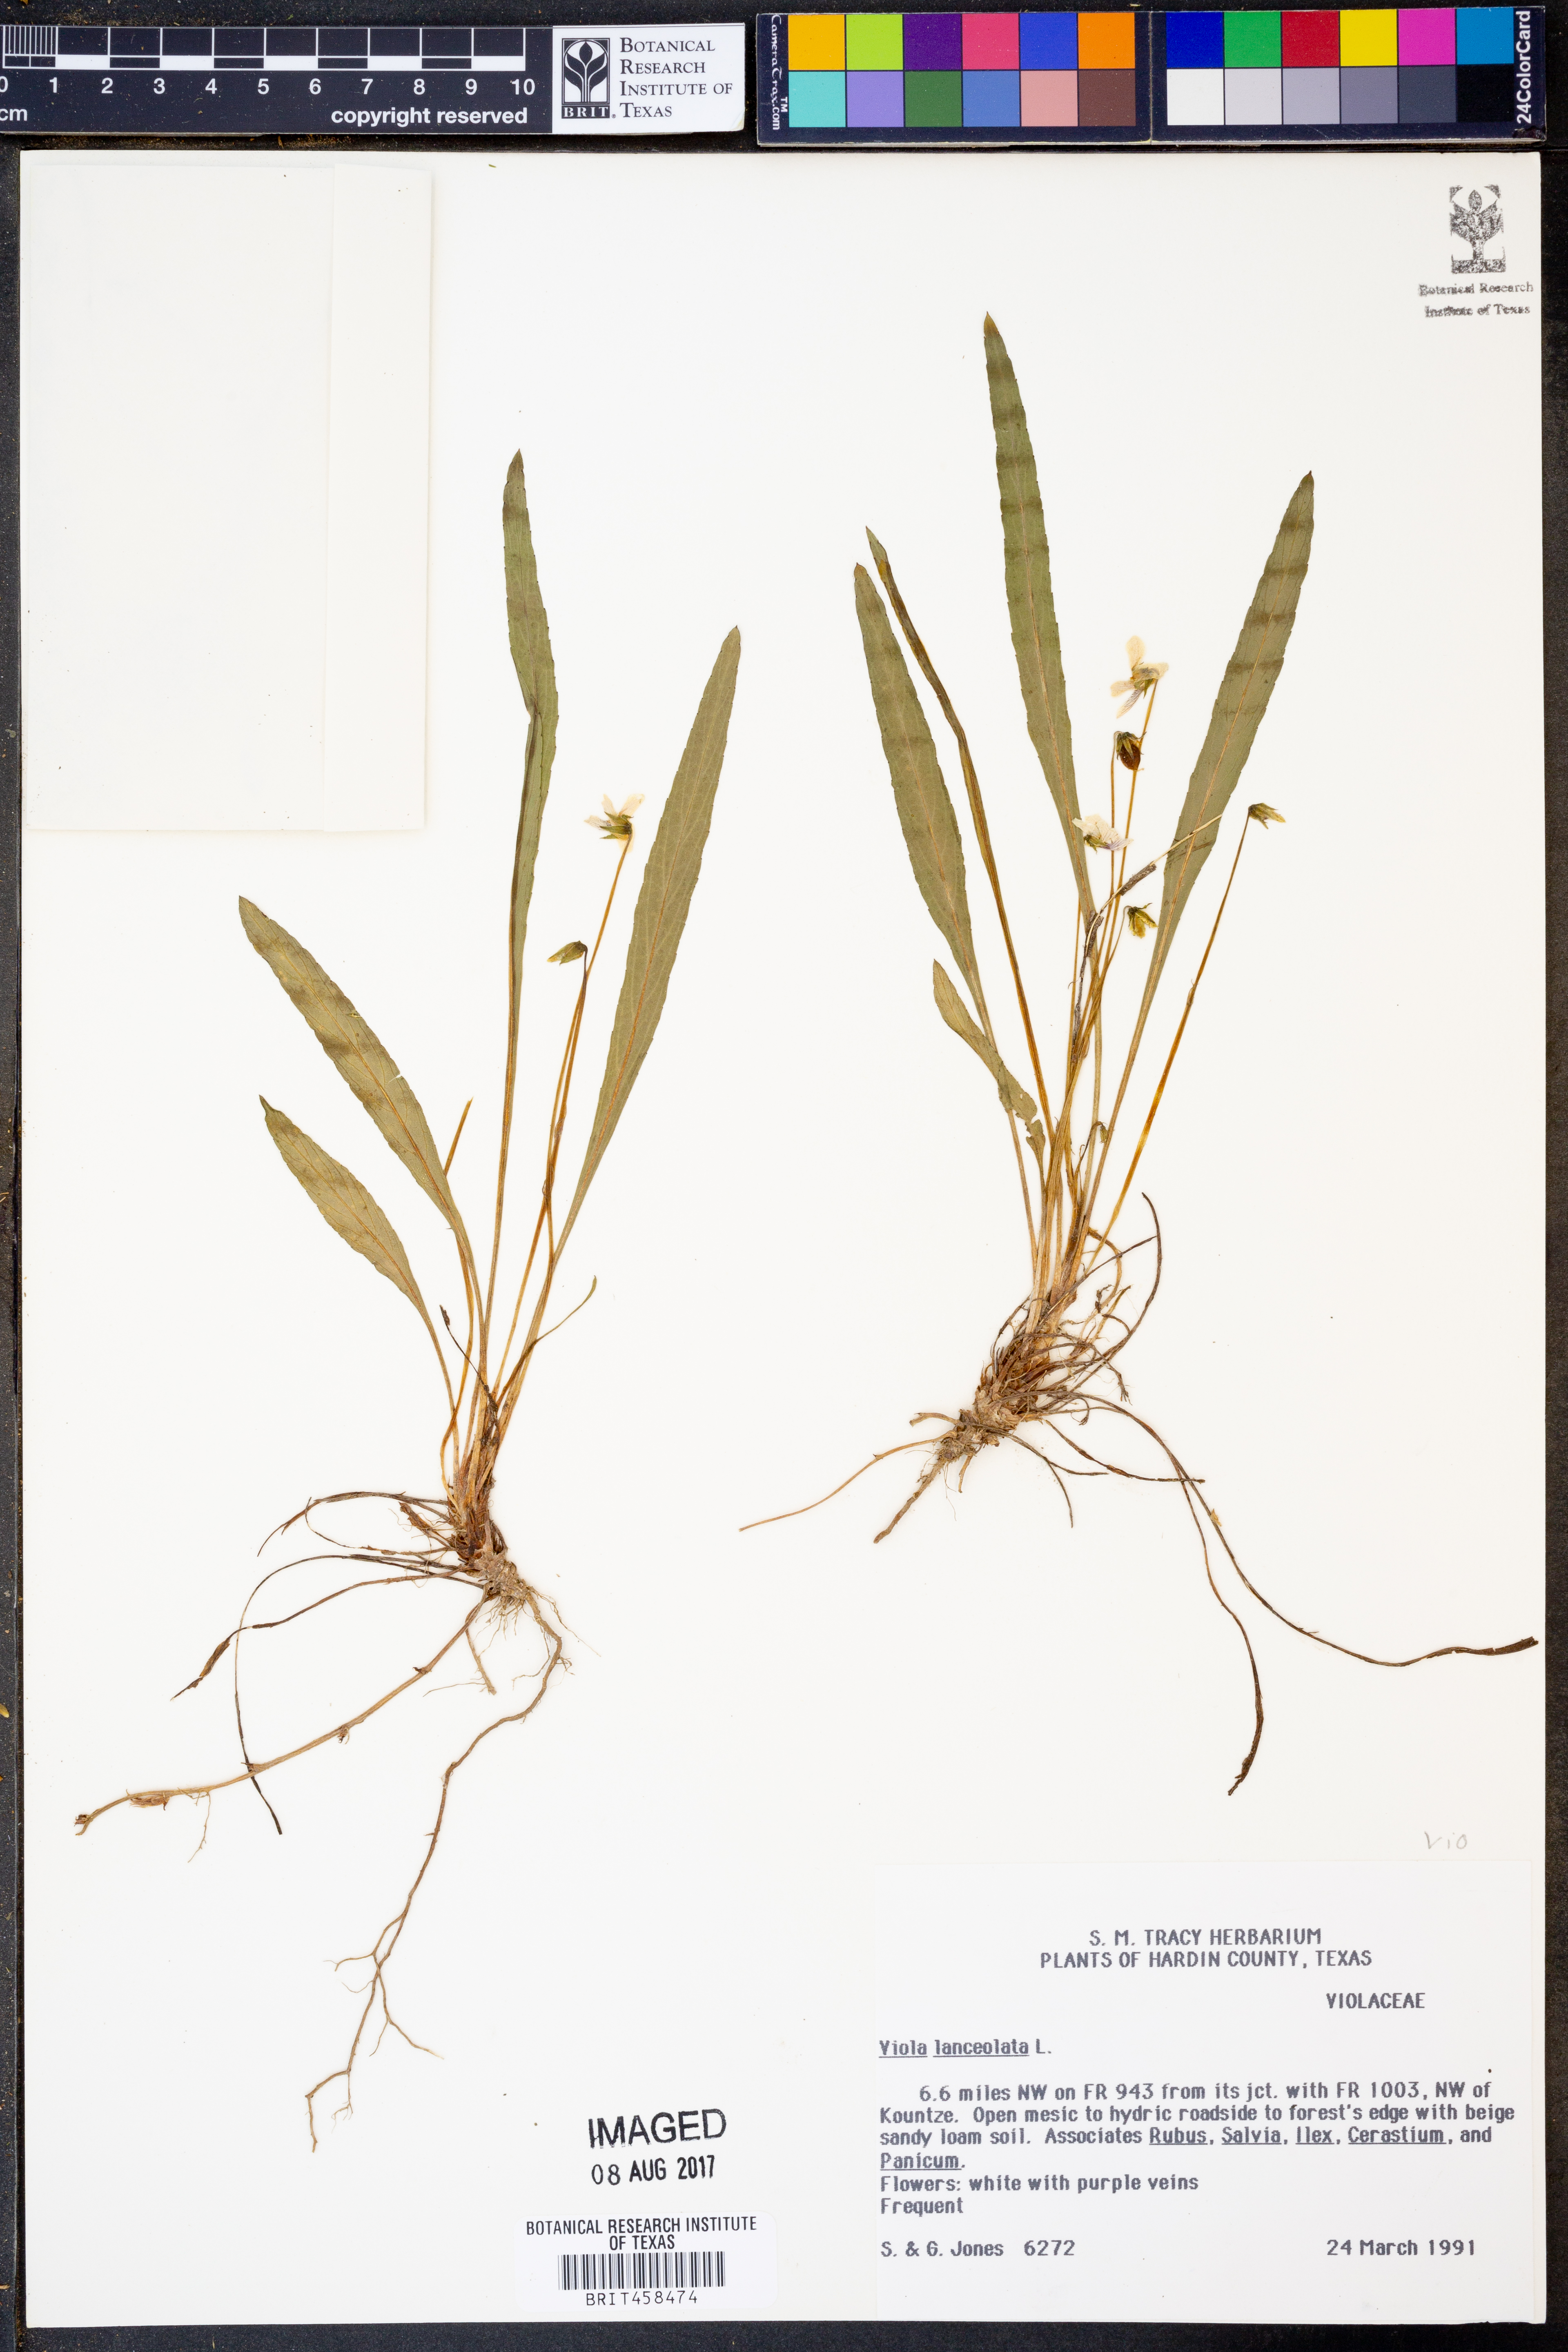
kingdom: Plantae
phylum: Tracheophyta
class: Magnoliopsida
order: Malpighiales
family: Violaceae
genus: Viola
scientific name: Viola lanceolata
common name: Bog white violet
